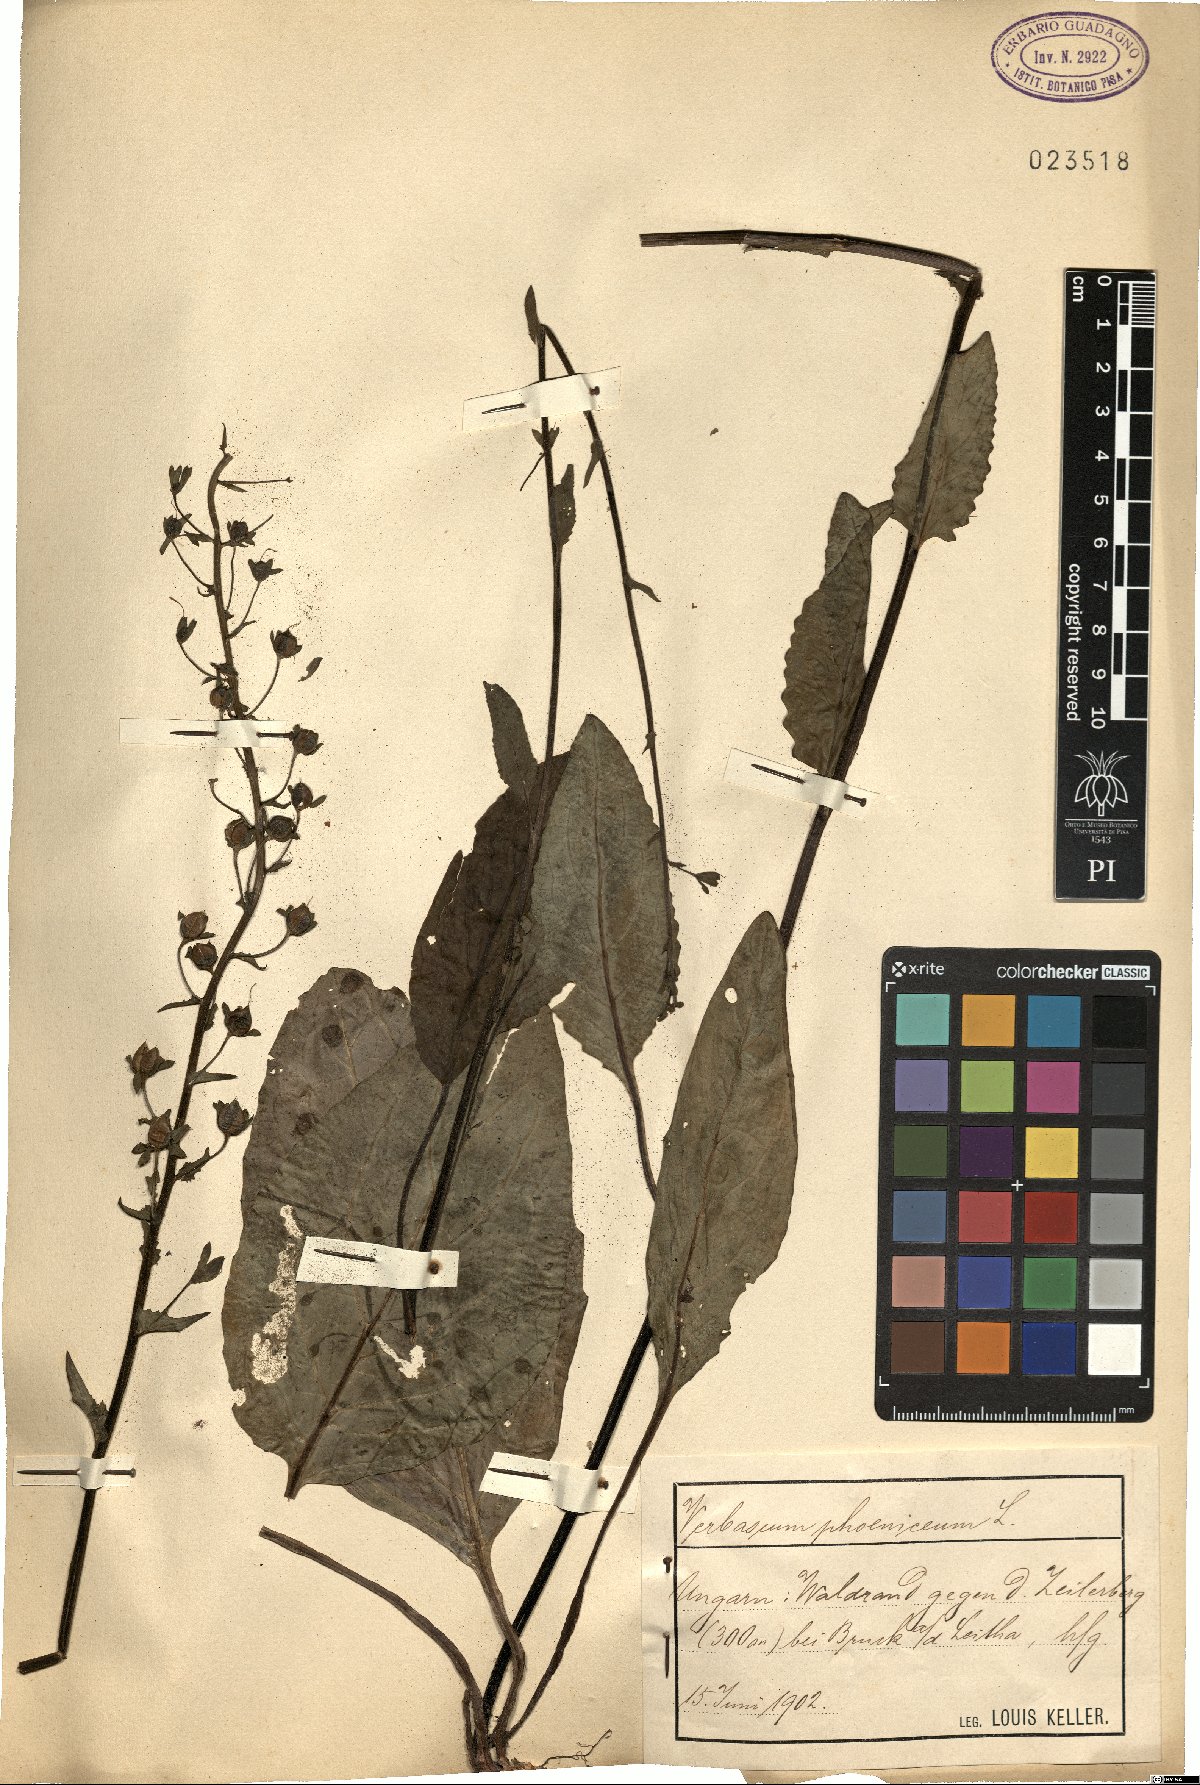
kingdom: Plantae
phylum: Tracheophyta
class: Magnoliopsida
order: Lamiales
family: Scrophulariaceae
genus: Verbascum
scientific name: Verbascum phoeniceum
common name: Purple mullein
